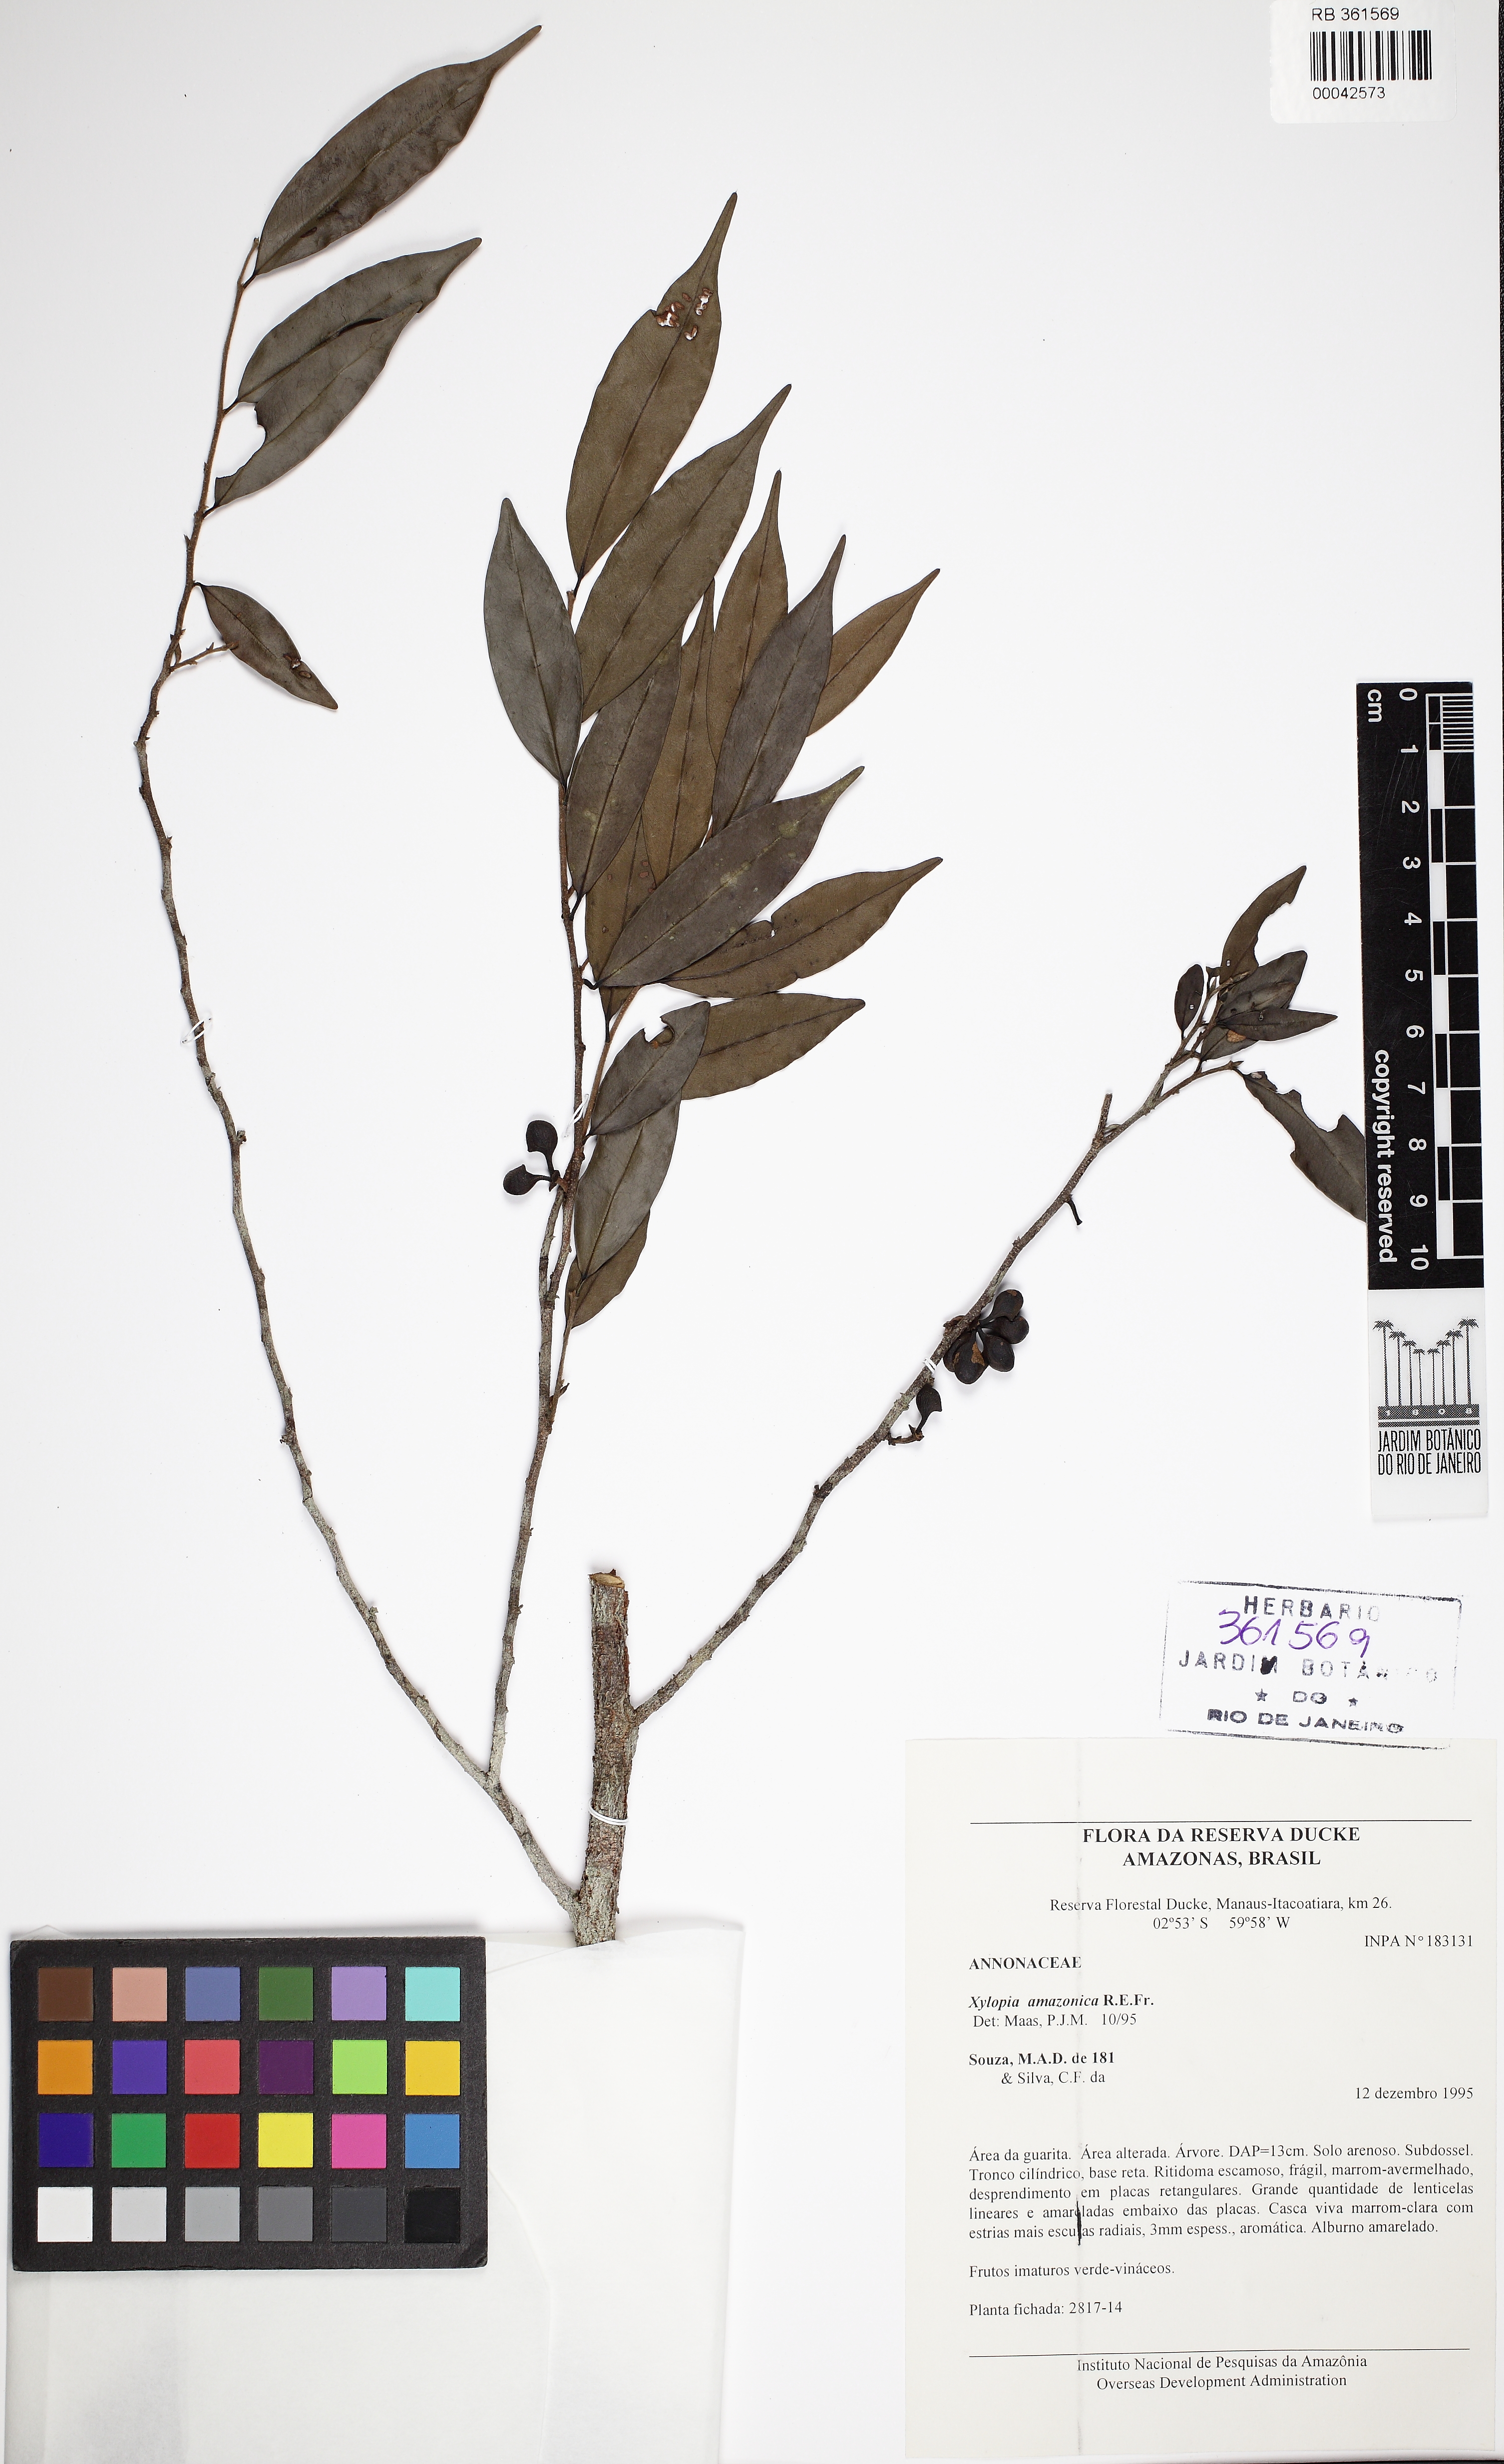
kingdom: Plantae
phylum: Tracheophyta
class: Magnoliopsida
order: Magnoliales
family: Annonaceae
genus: Xylopia
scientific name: Xylopia amazonica
